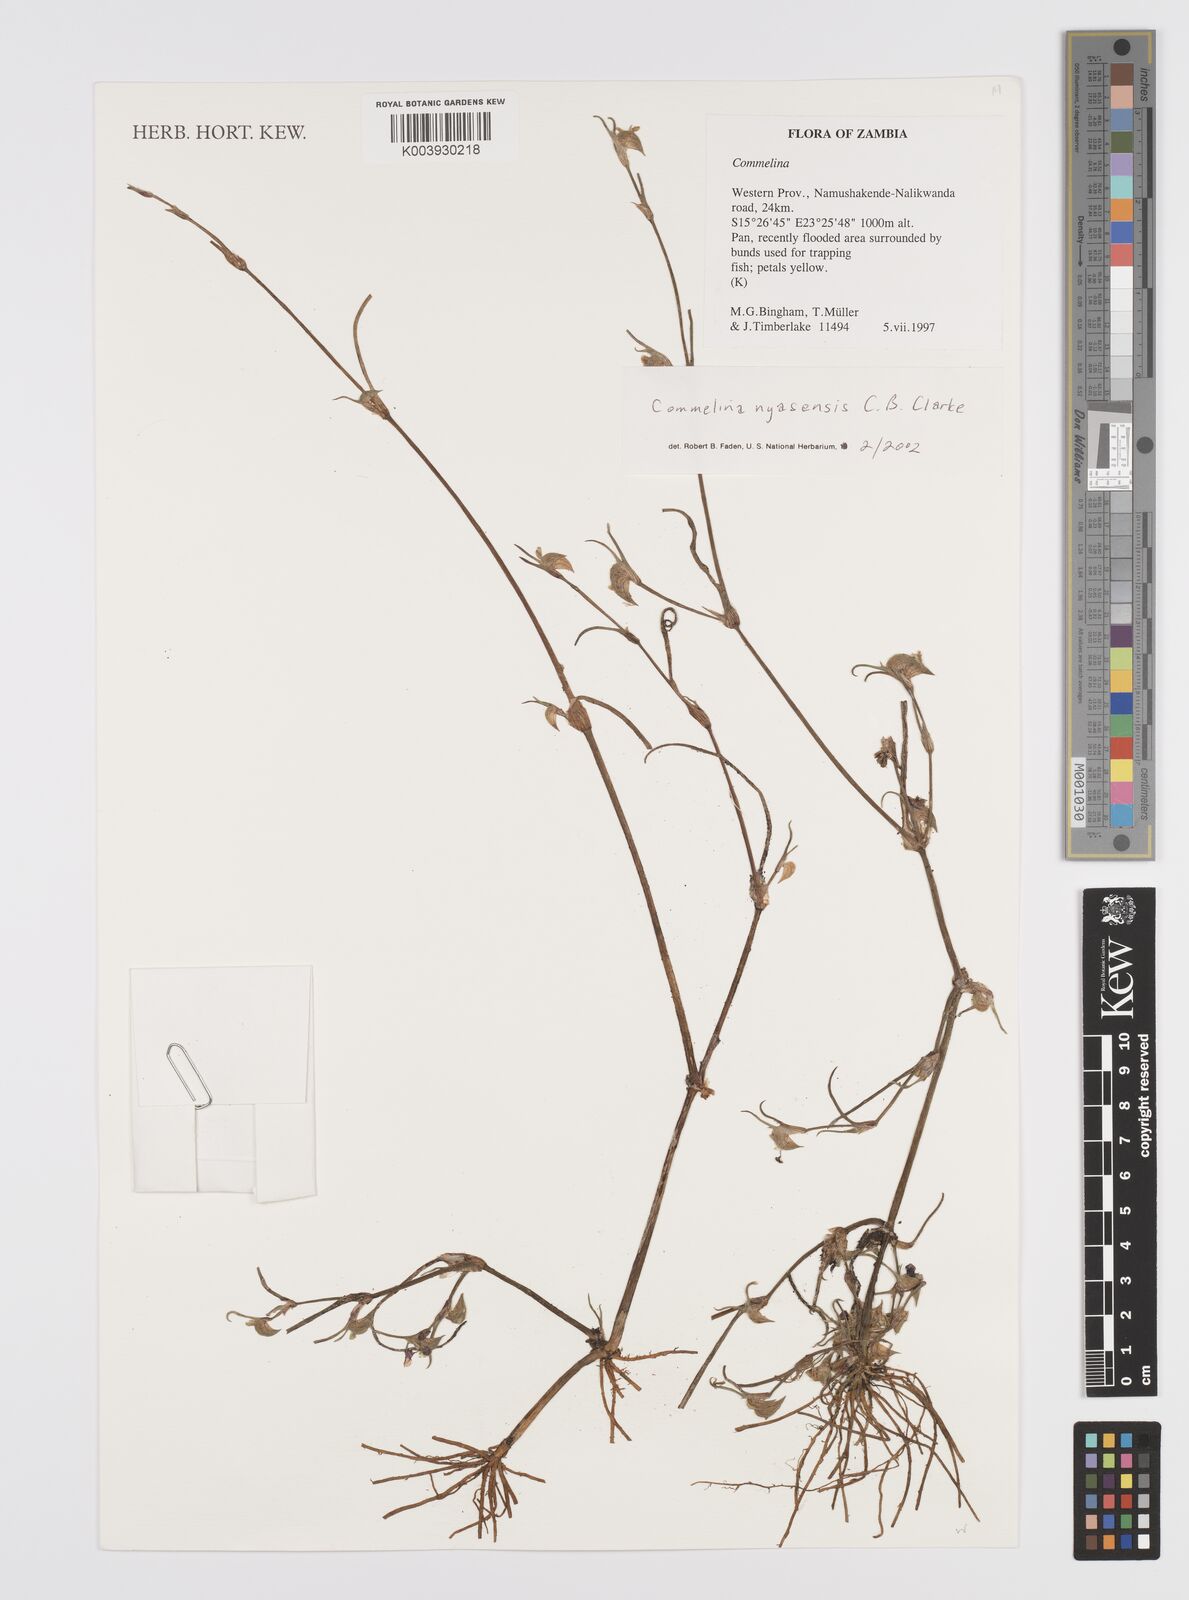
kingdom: Plantae
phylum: Tracheophyta
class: Liliopsida
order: Commelinales
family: Commelinaceae
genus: Commelina
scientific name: Commelina nyasensis
